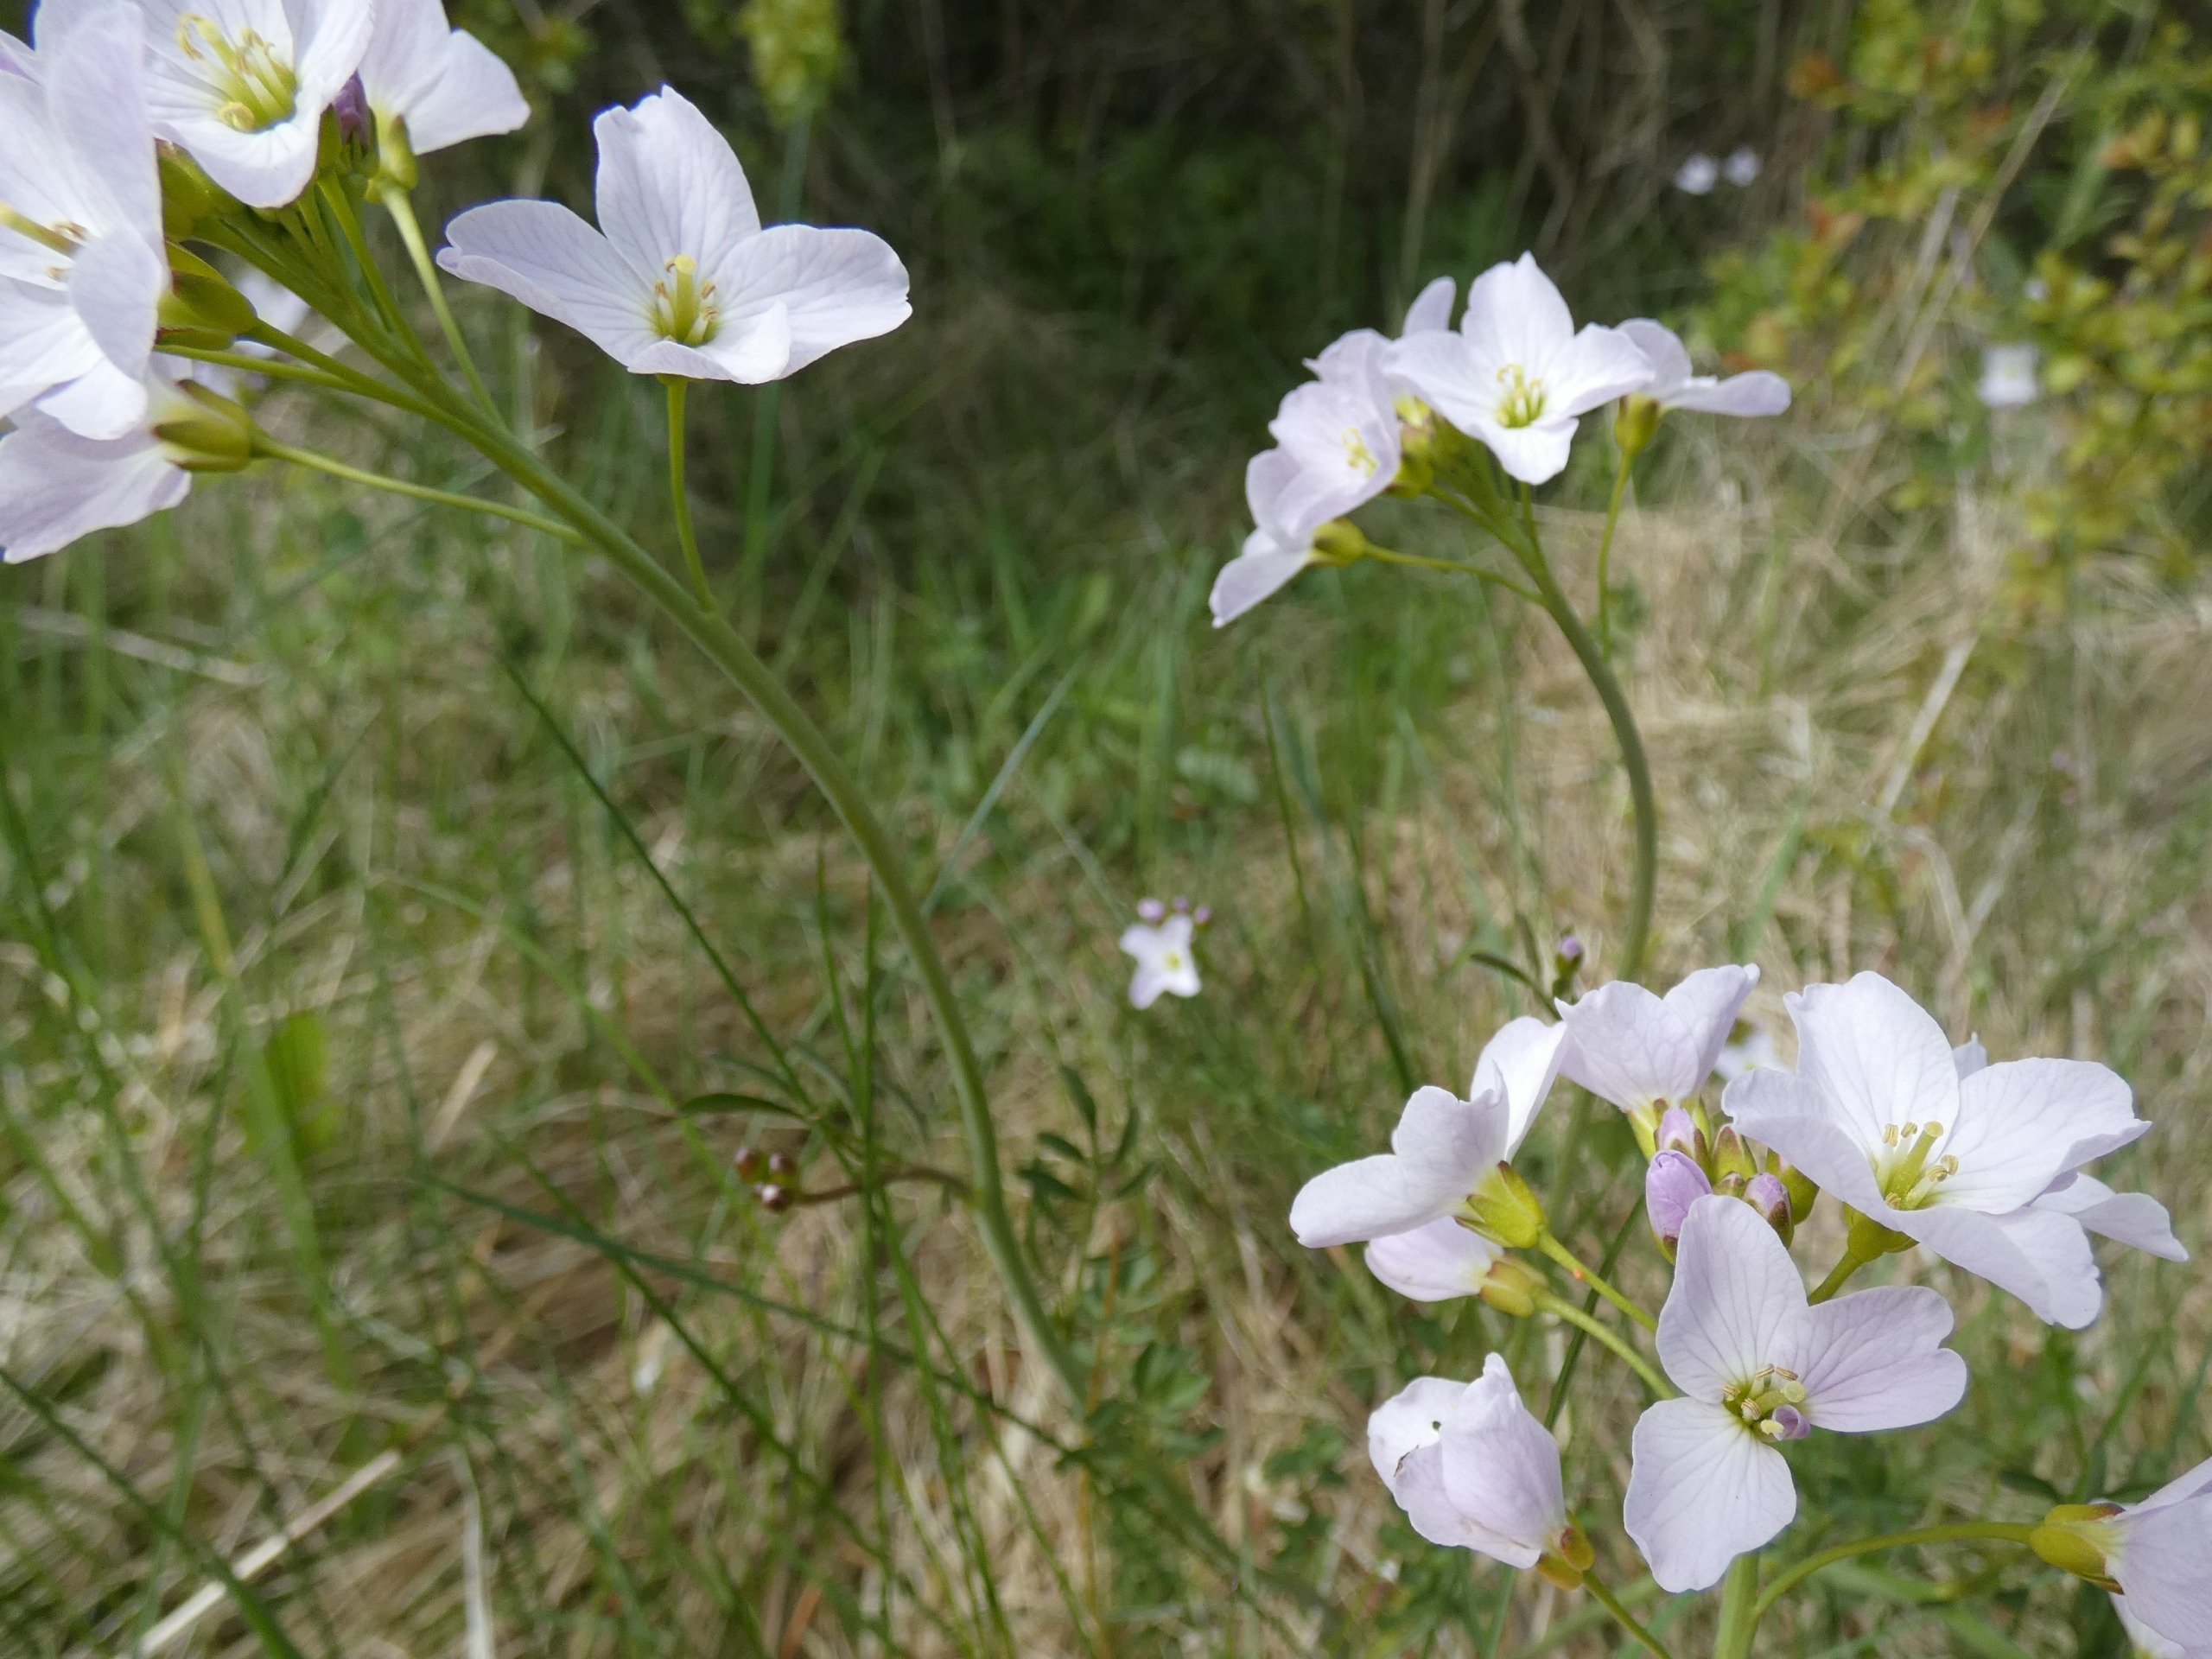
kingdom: Plantae
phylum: Tracheophyta
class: Magnoliopsida
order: Brassicales
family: Brassicaceae
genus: Cardamine
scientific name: Cardamine pratensis
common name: Engkarse
